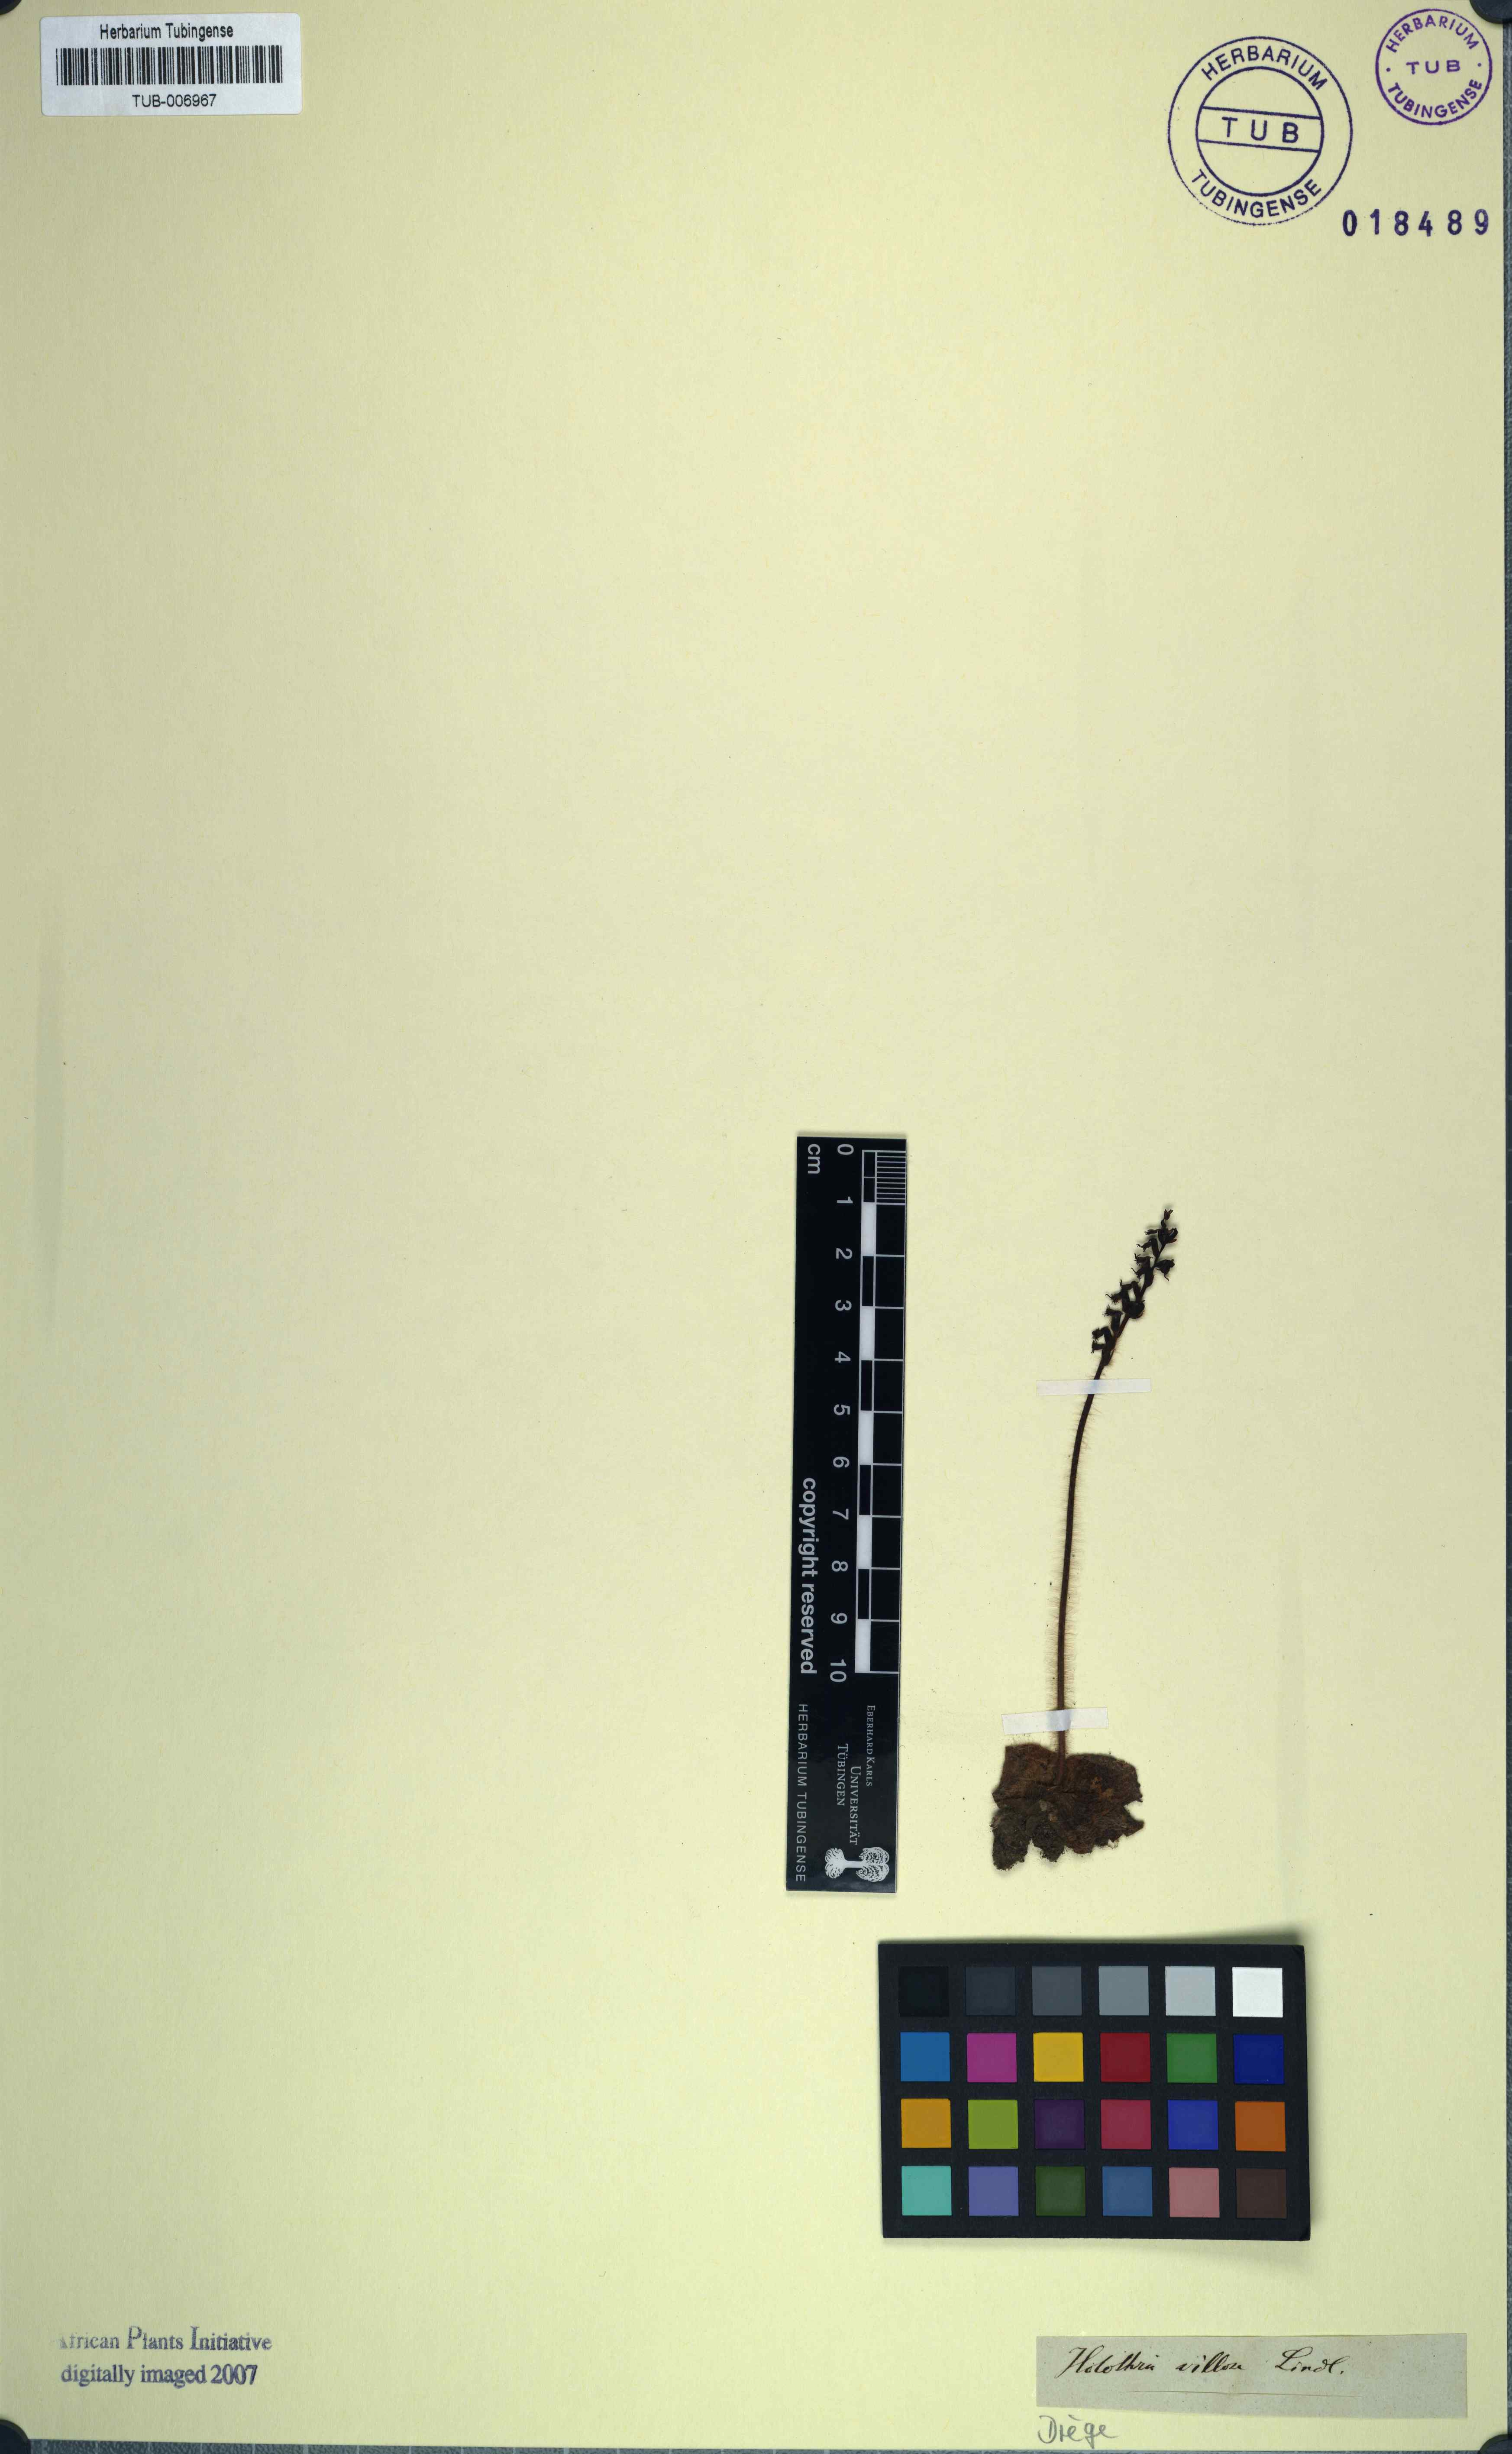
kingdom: Plantae
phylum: Tracheophyta
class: Liliopsida
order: Asparagales
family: Orchidaceae
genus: Holothrix
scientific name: Holothrix villosa
